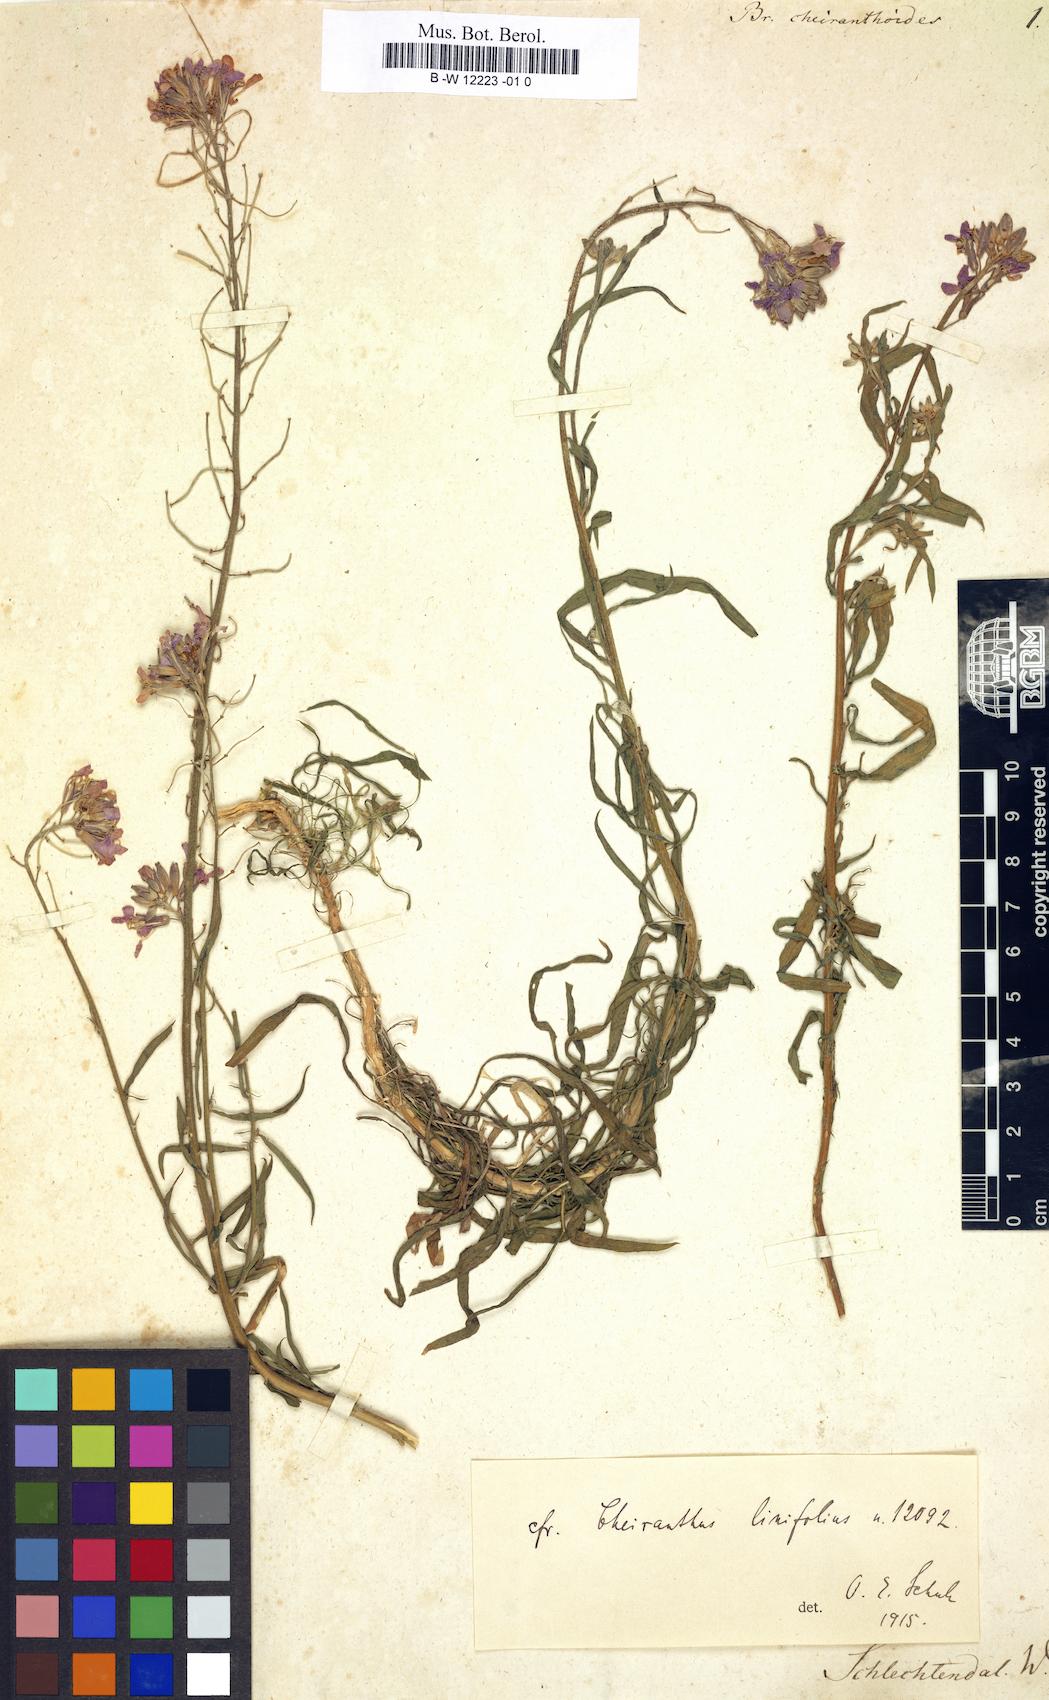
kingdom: Plantae
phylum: Tracheophyta
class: Magnoliopsida
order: Brassicales
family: Brassicaceae
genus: Brassica
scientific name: Brassica
